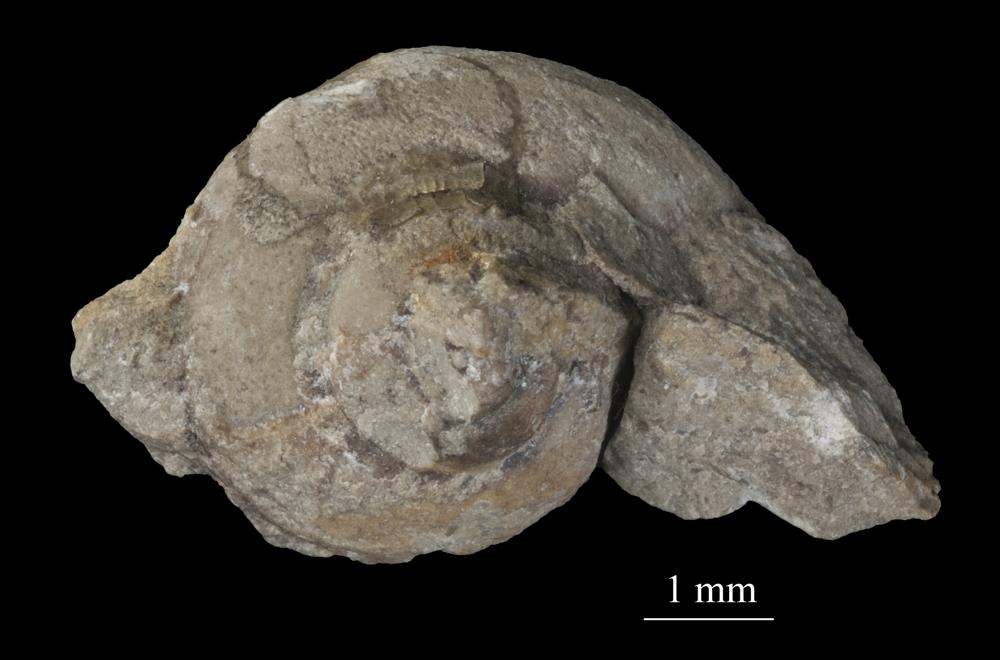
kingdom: Animalia
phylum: Mollusca
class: Gastropoda
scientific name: Gastropoda
